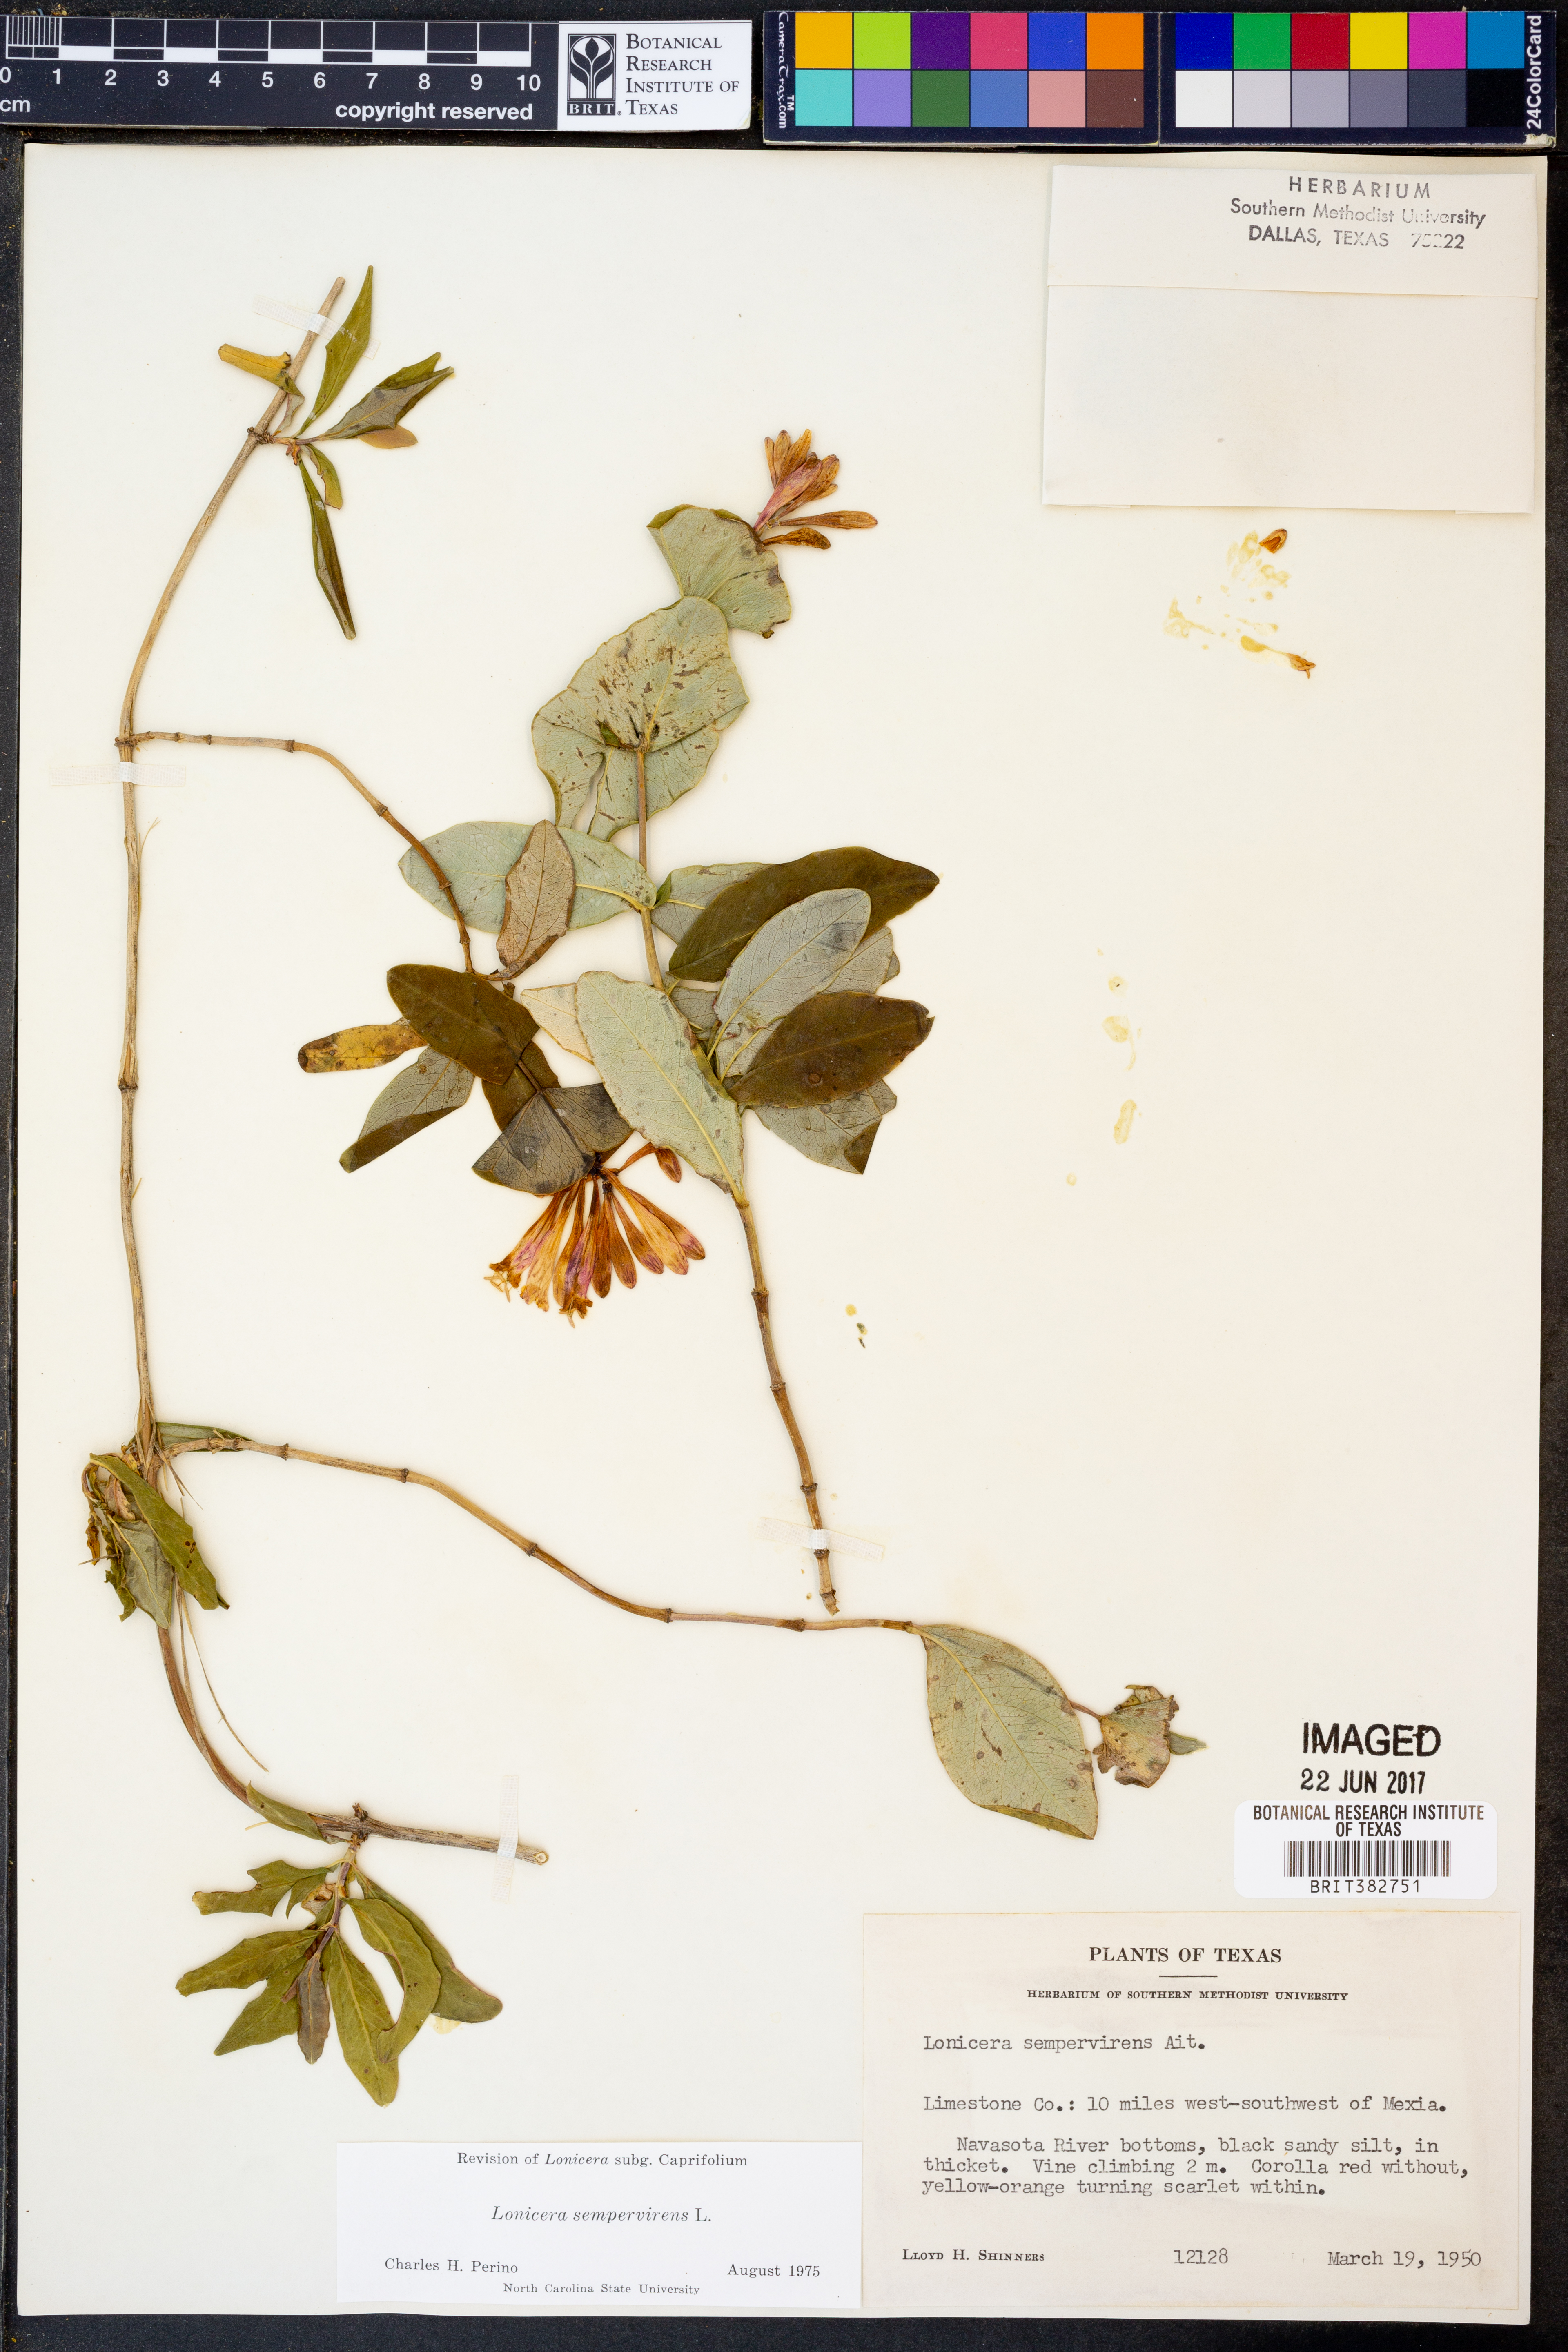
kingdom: Plantae
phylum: Tracheophyta
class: Magnoliopsida
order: Dipsacales
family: Caprifoliaceae
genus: Lonicera
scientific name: Lonicera sempervirens
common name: Coral honeysuckle
